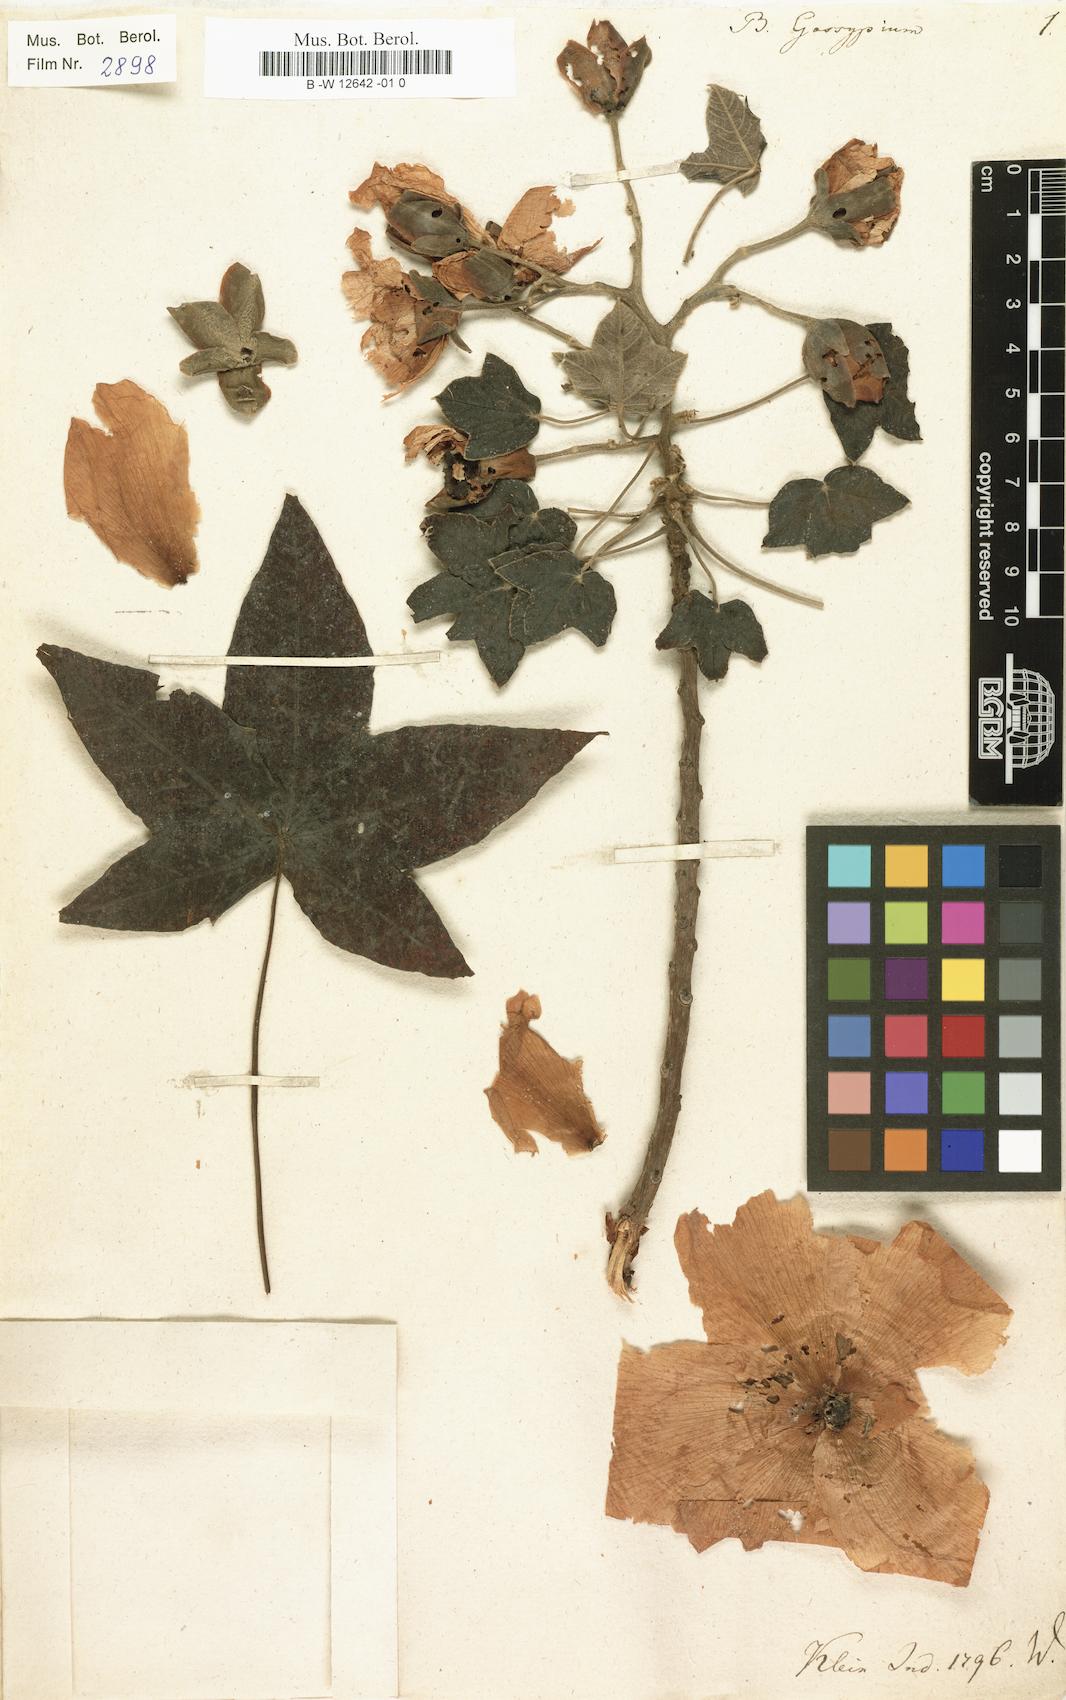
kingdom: Plantae
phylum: Tracheophyta
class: Magnoliopsida
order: Malvales
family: Cochlospermaceae
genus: Cochlospermum
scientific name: Cochlospermum religiosum
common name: Cottontree
